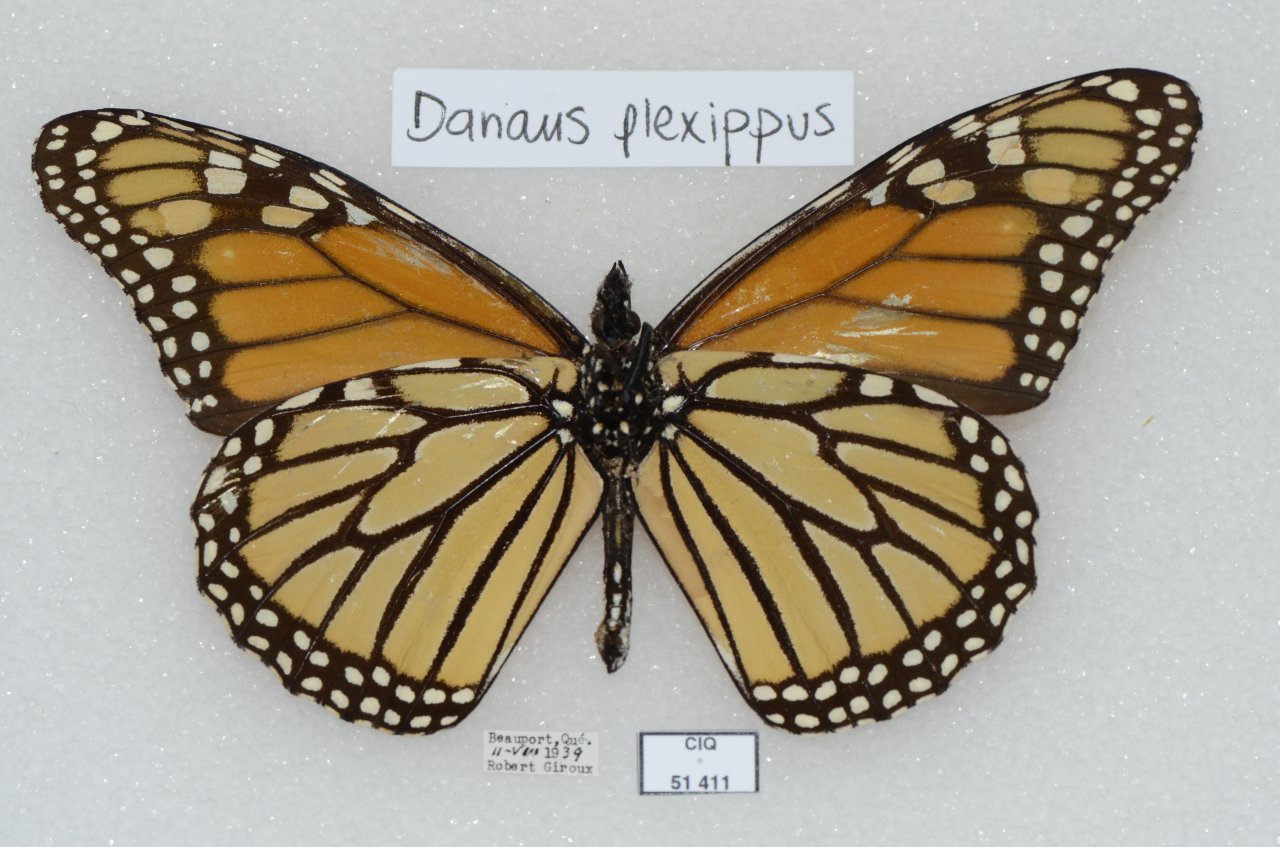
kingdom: Animalia
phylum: Arthropoda
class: Insecta
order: Lepidoptera
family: Nymphalidae
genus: Danaus
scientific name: Danaus plexippus
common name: Monarch
